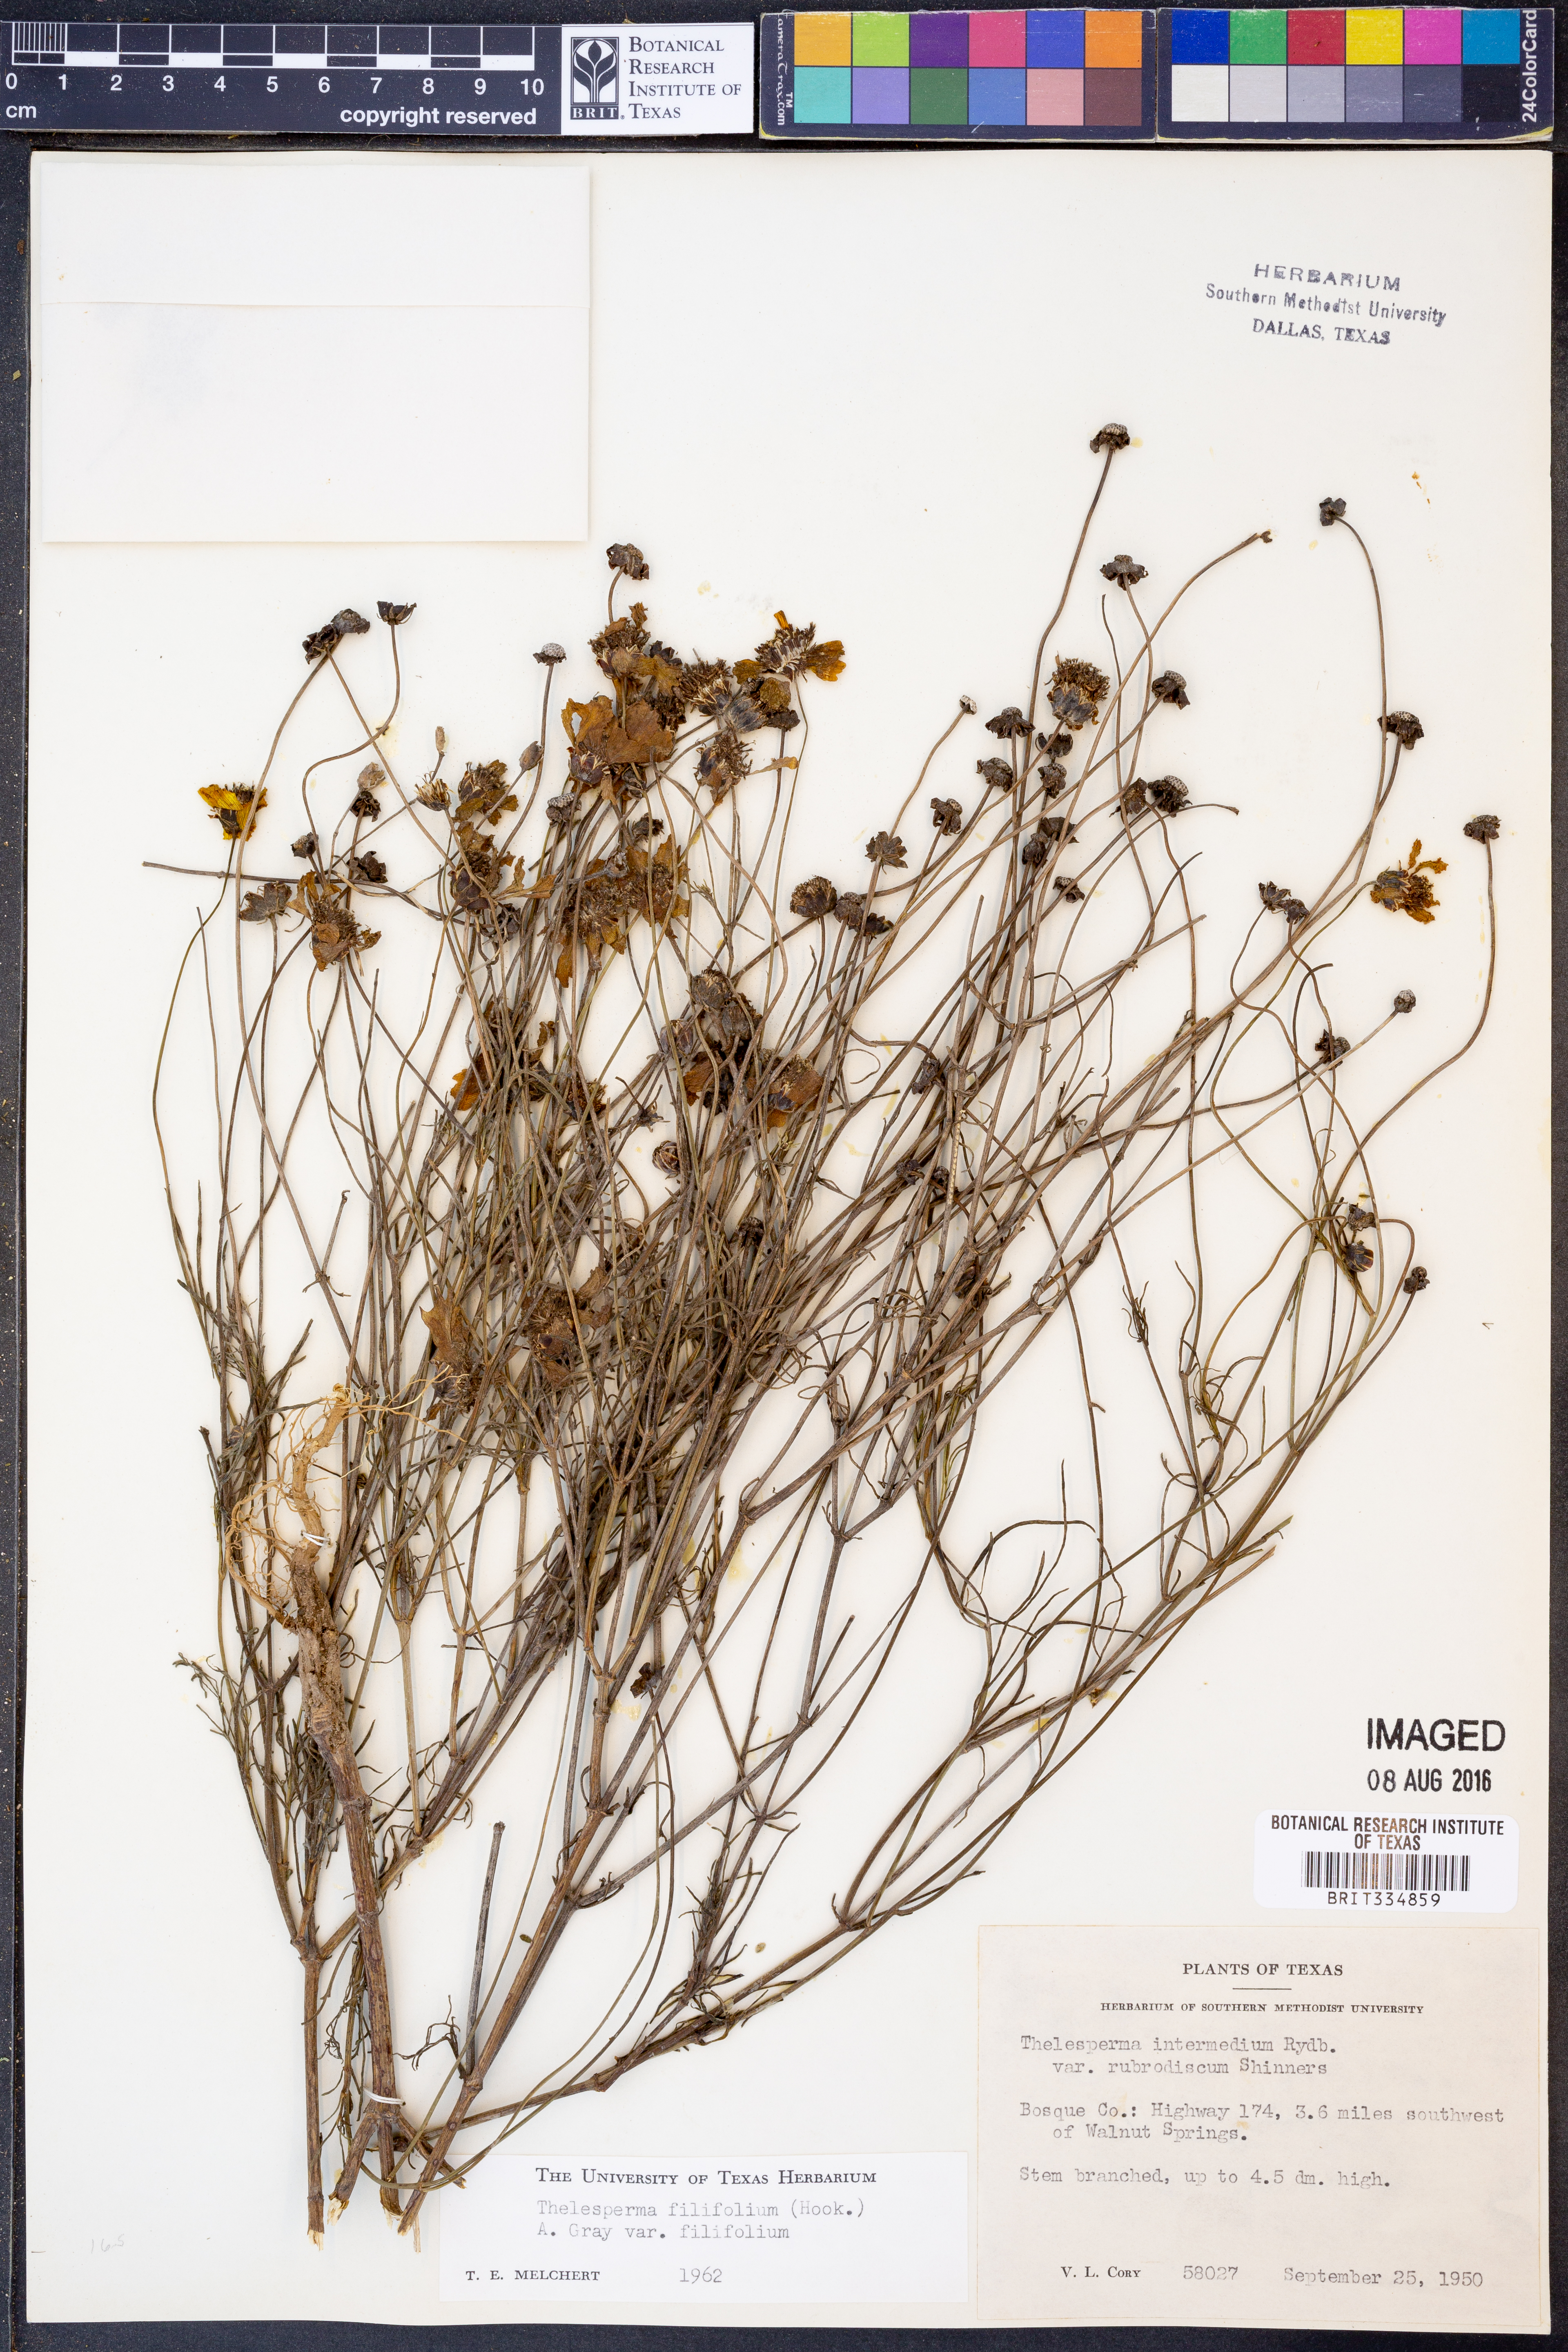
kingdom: Plantae
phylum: Tracheophyta
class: Magnoliopsida
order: Asterales
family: Asteraceae
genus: Thelesperma
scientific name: Thelesperma filifolium
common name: Stiff greenthread
